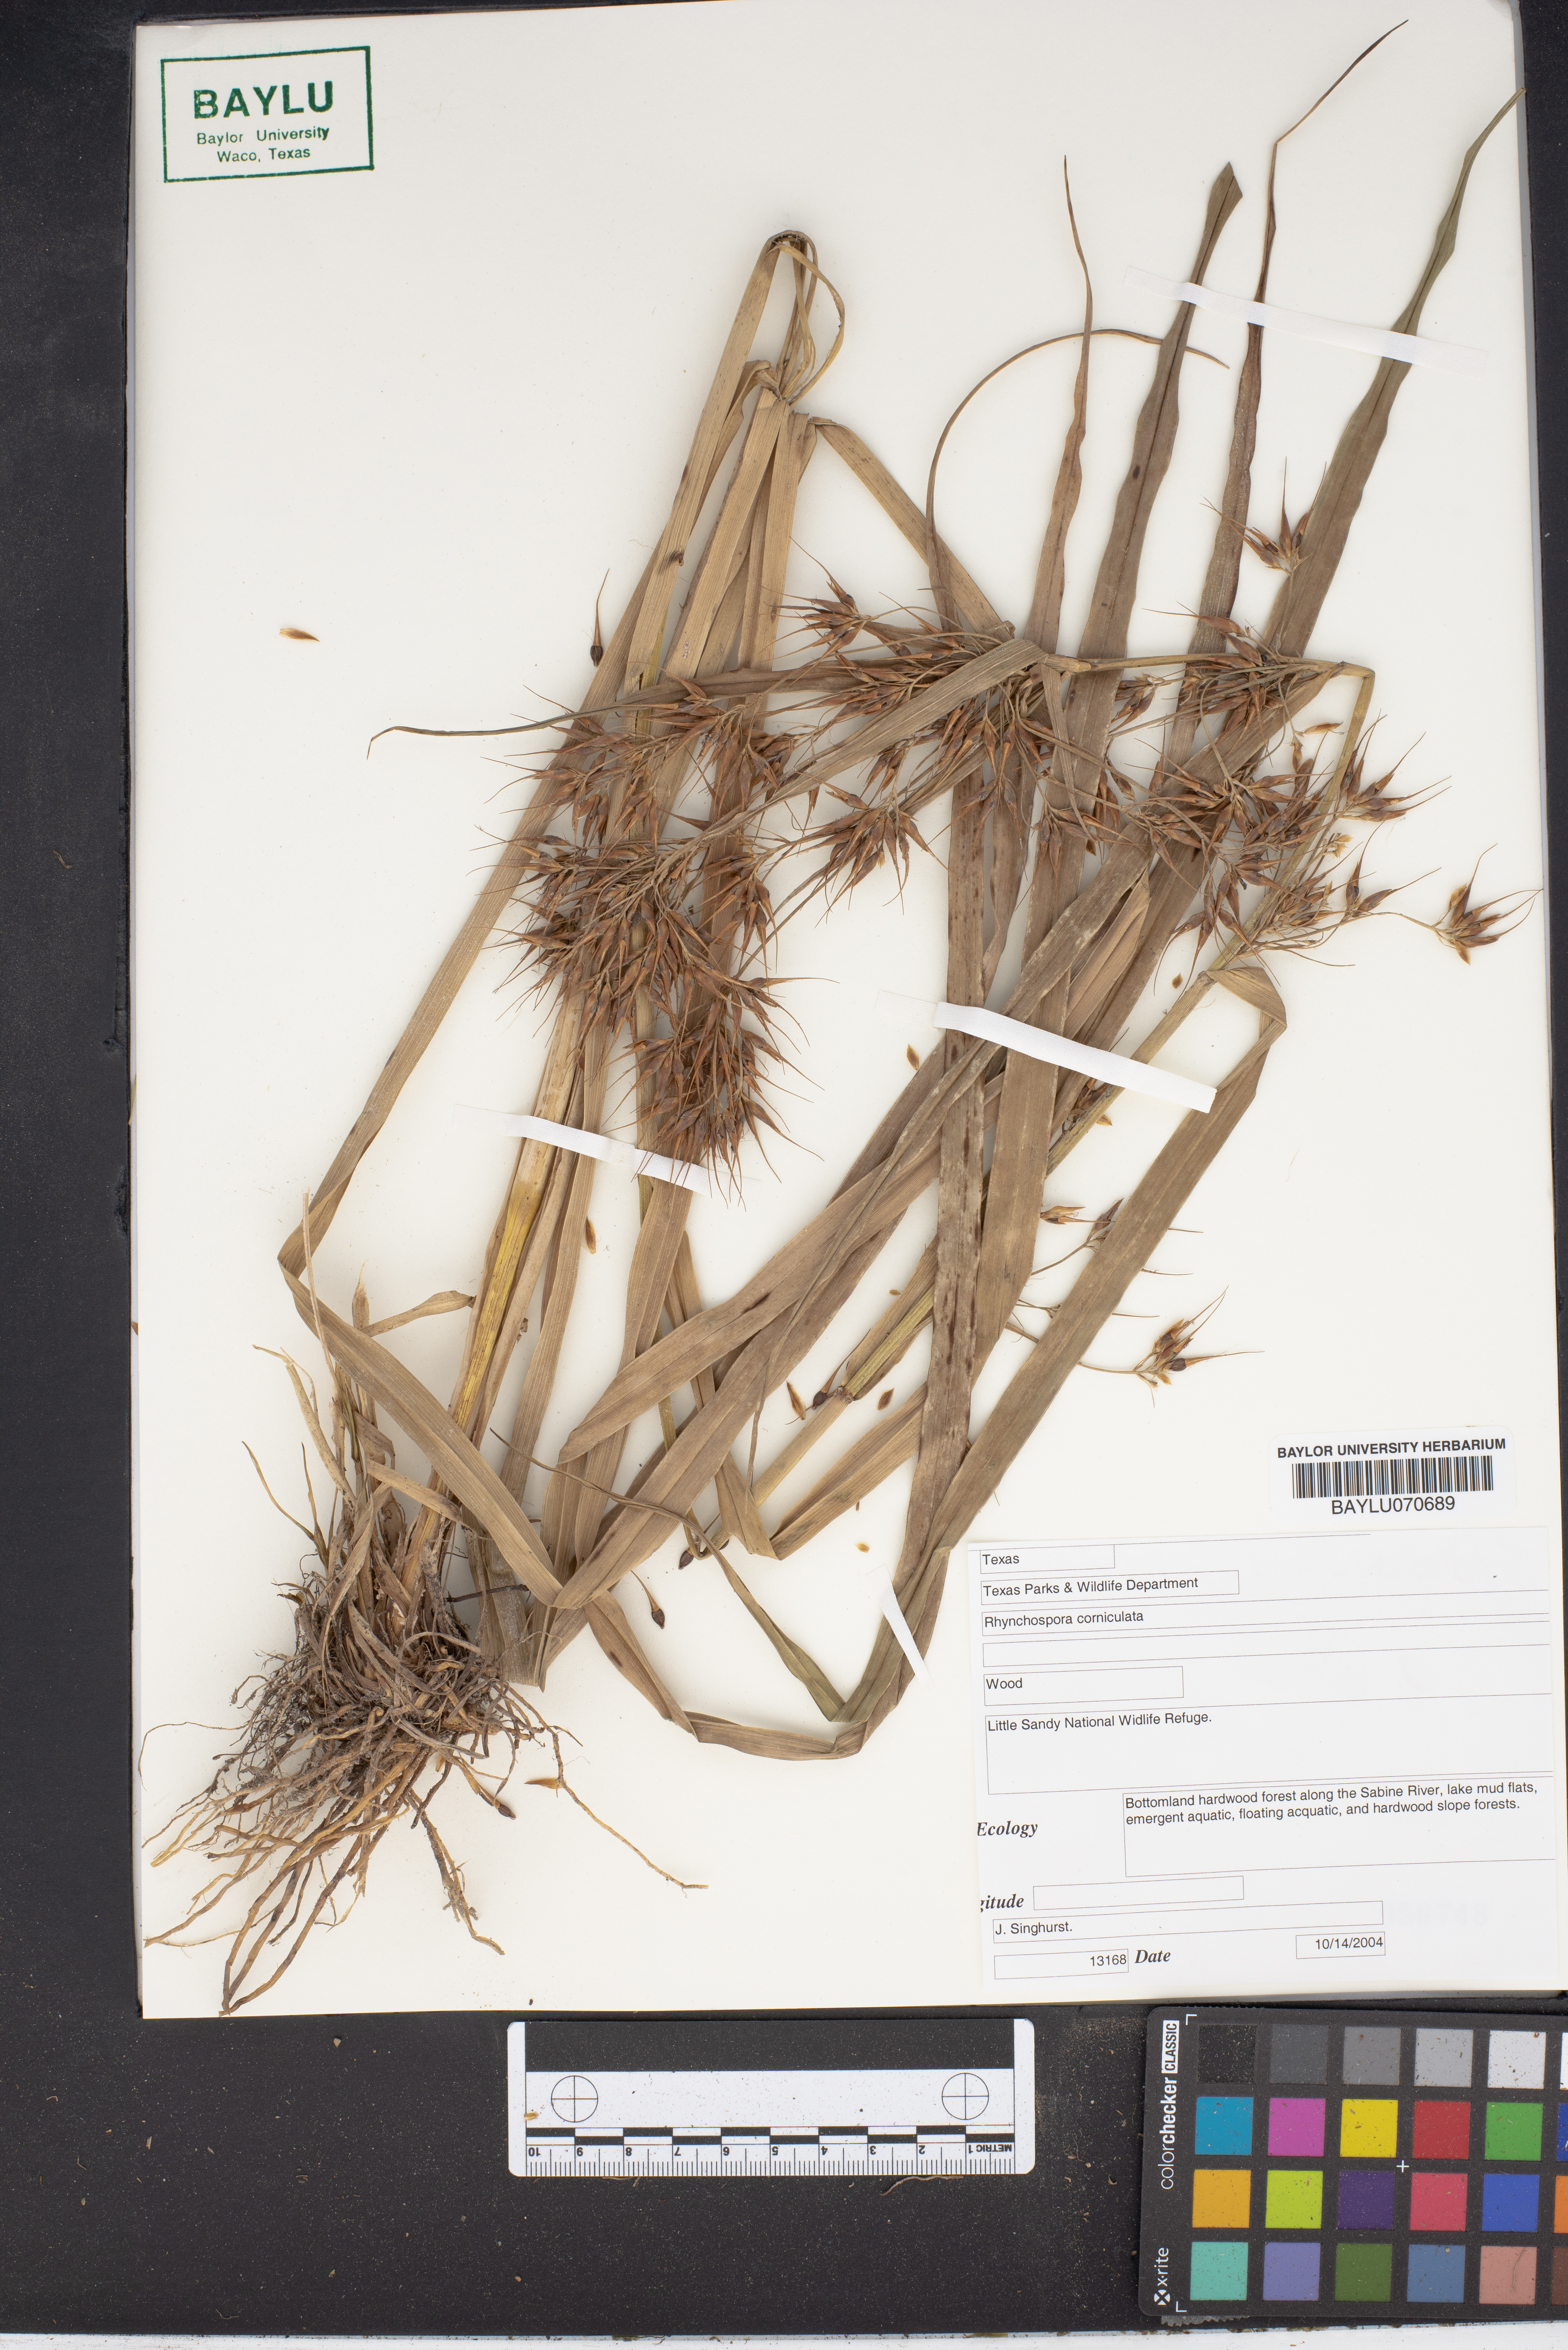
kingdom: Plantae
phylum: Tracheophyta
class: Liliopsida
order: Poales
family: Cyperaceae
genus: Rhynchospora
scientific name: Rhynchospora corniculata
